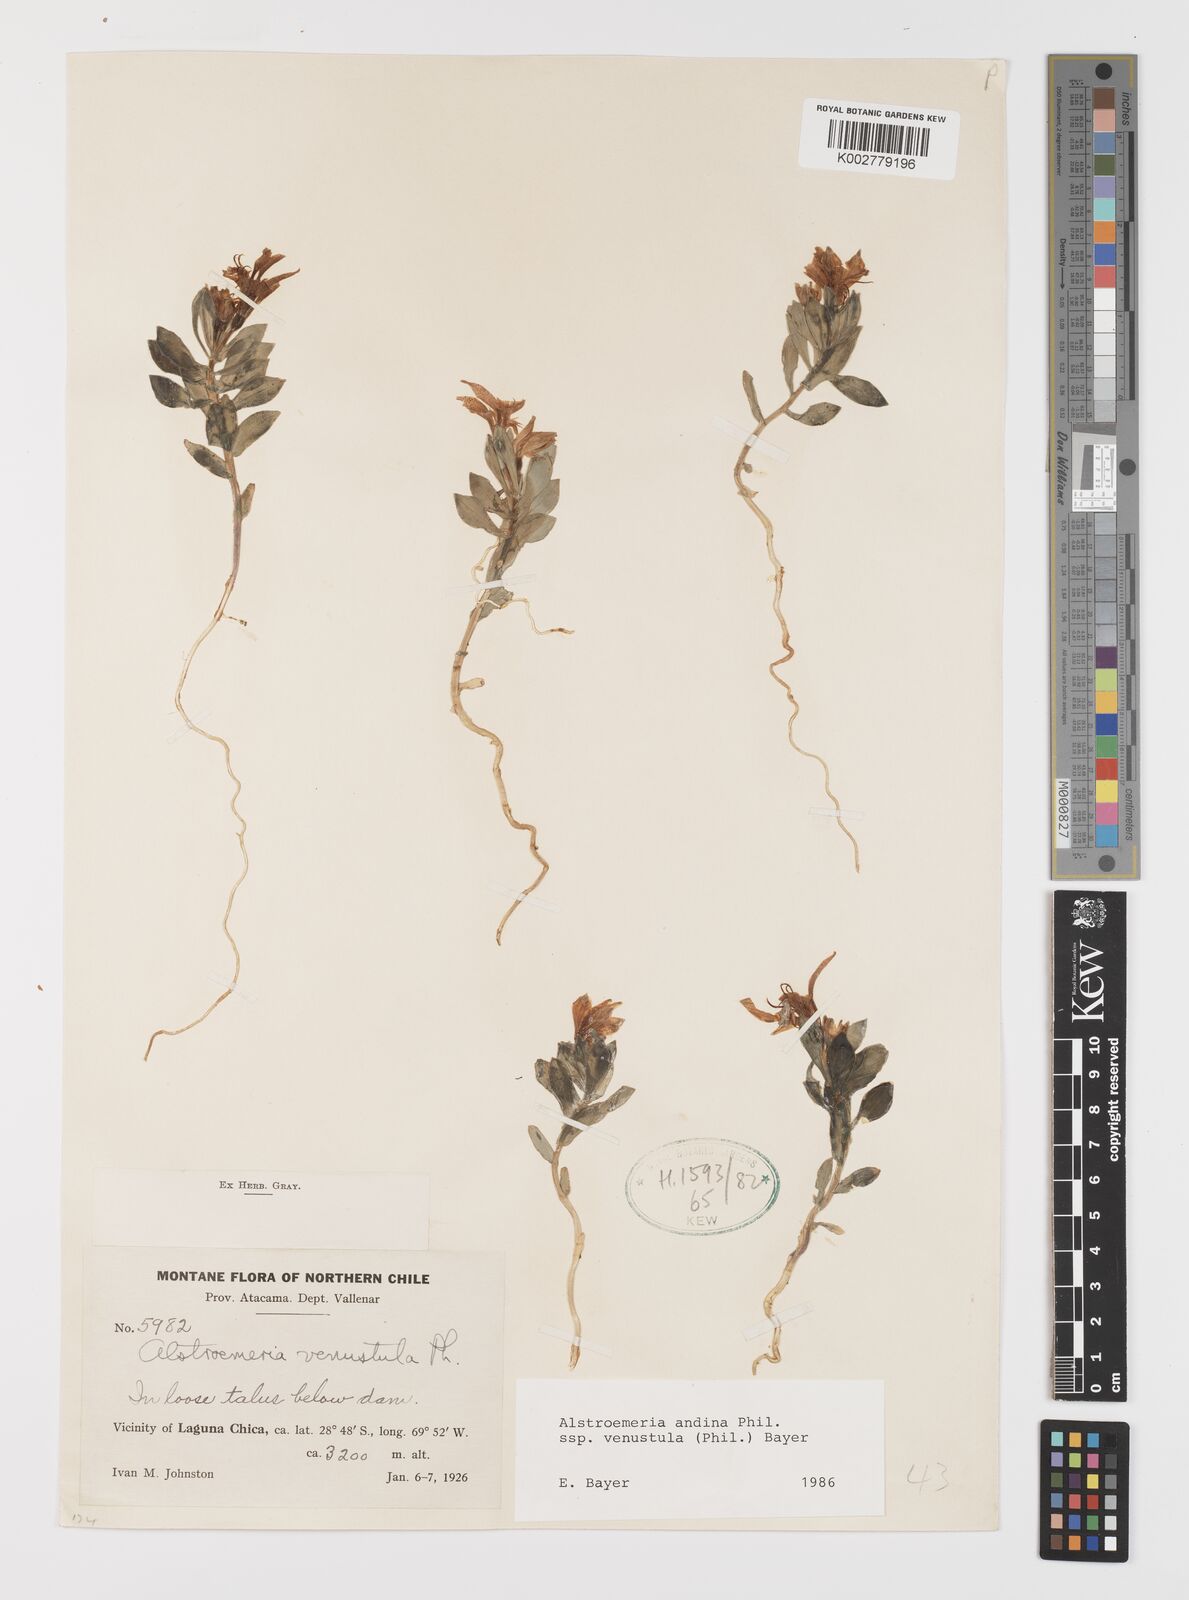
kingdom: Plantae
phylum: Tracheophyta
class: Liliopsida
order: Liliales
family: Alstroemeriaceae
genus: Alstroemeria
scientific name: Alstroemeria andina
